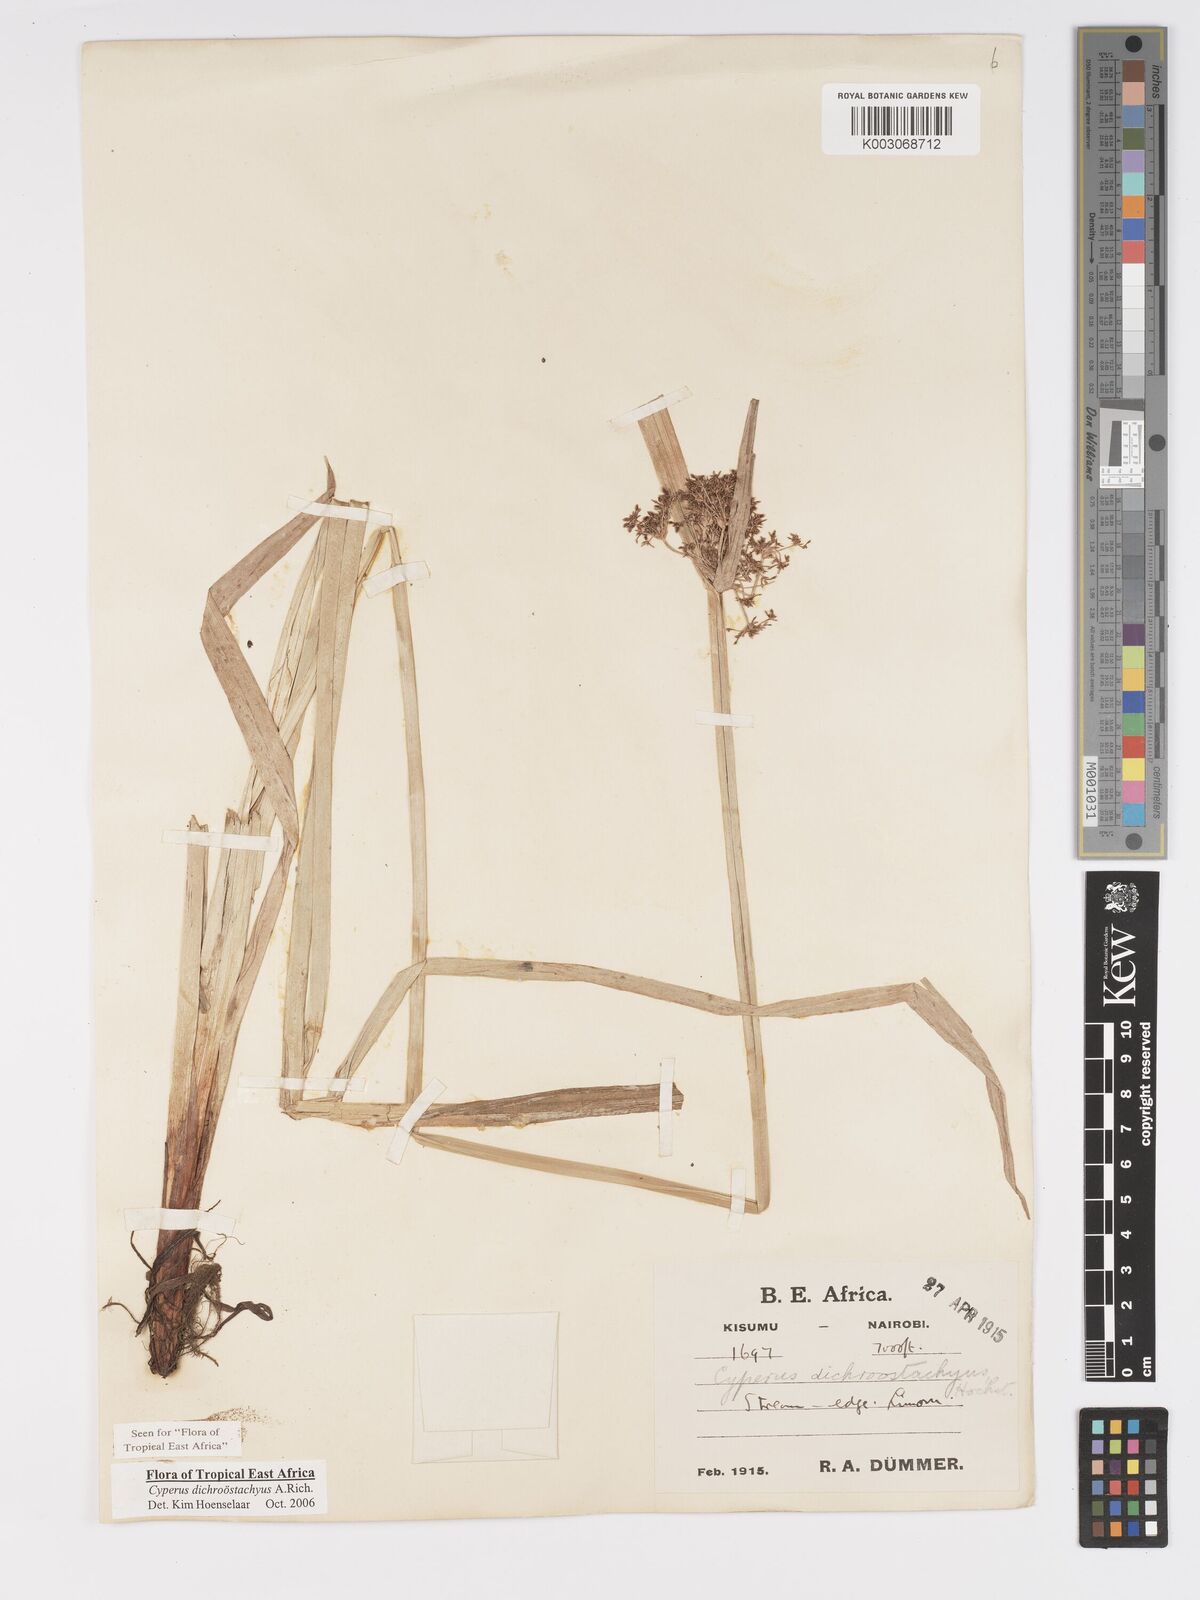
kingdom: Plantae
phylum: Tracheophyta
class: Liliopsida
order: Poales
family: Cyperaceae
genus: Cyperus
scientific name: Cyperus dichrostachyus
